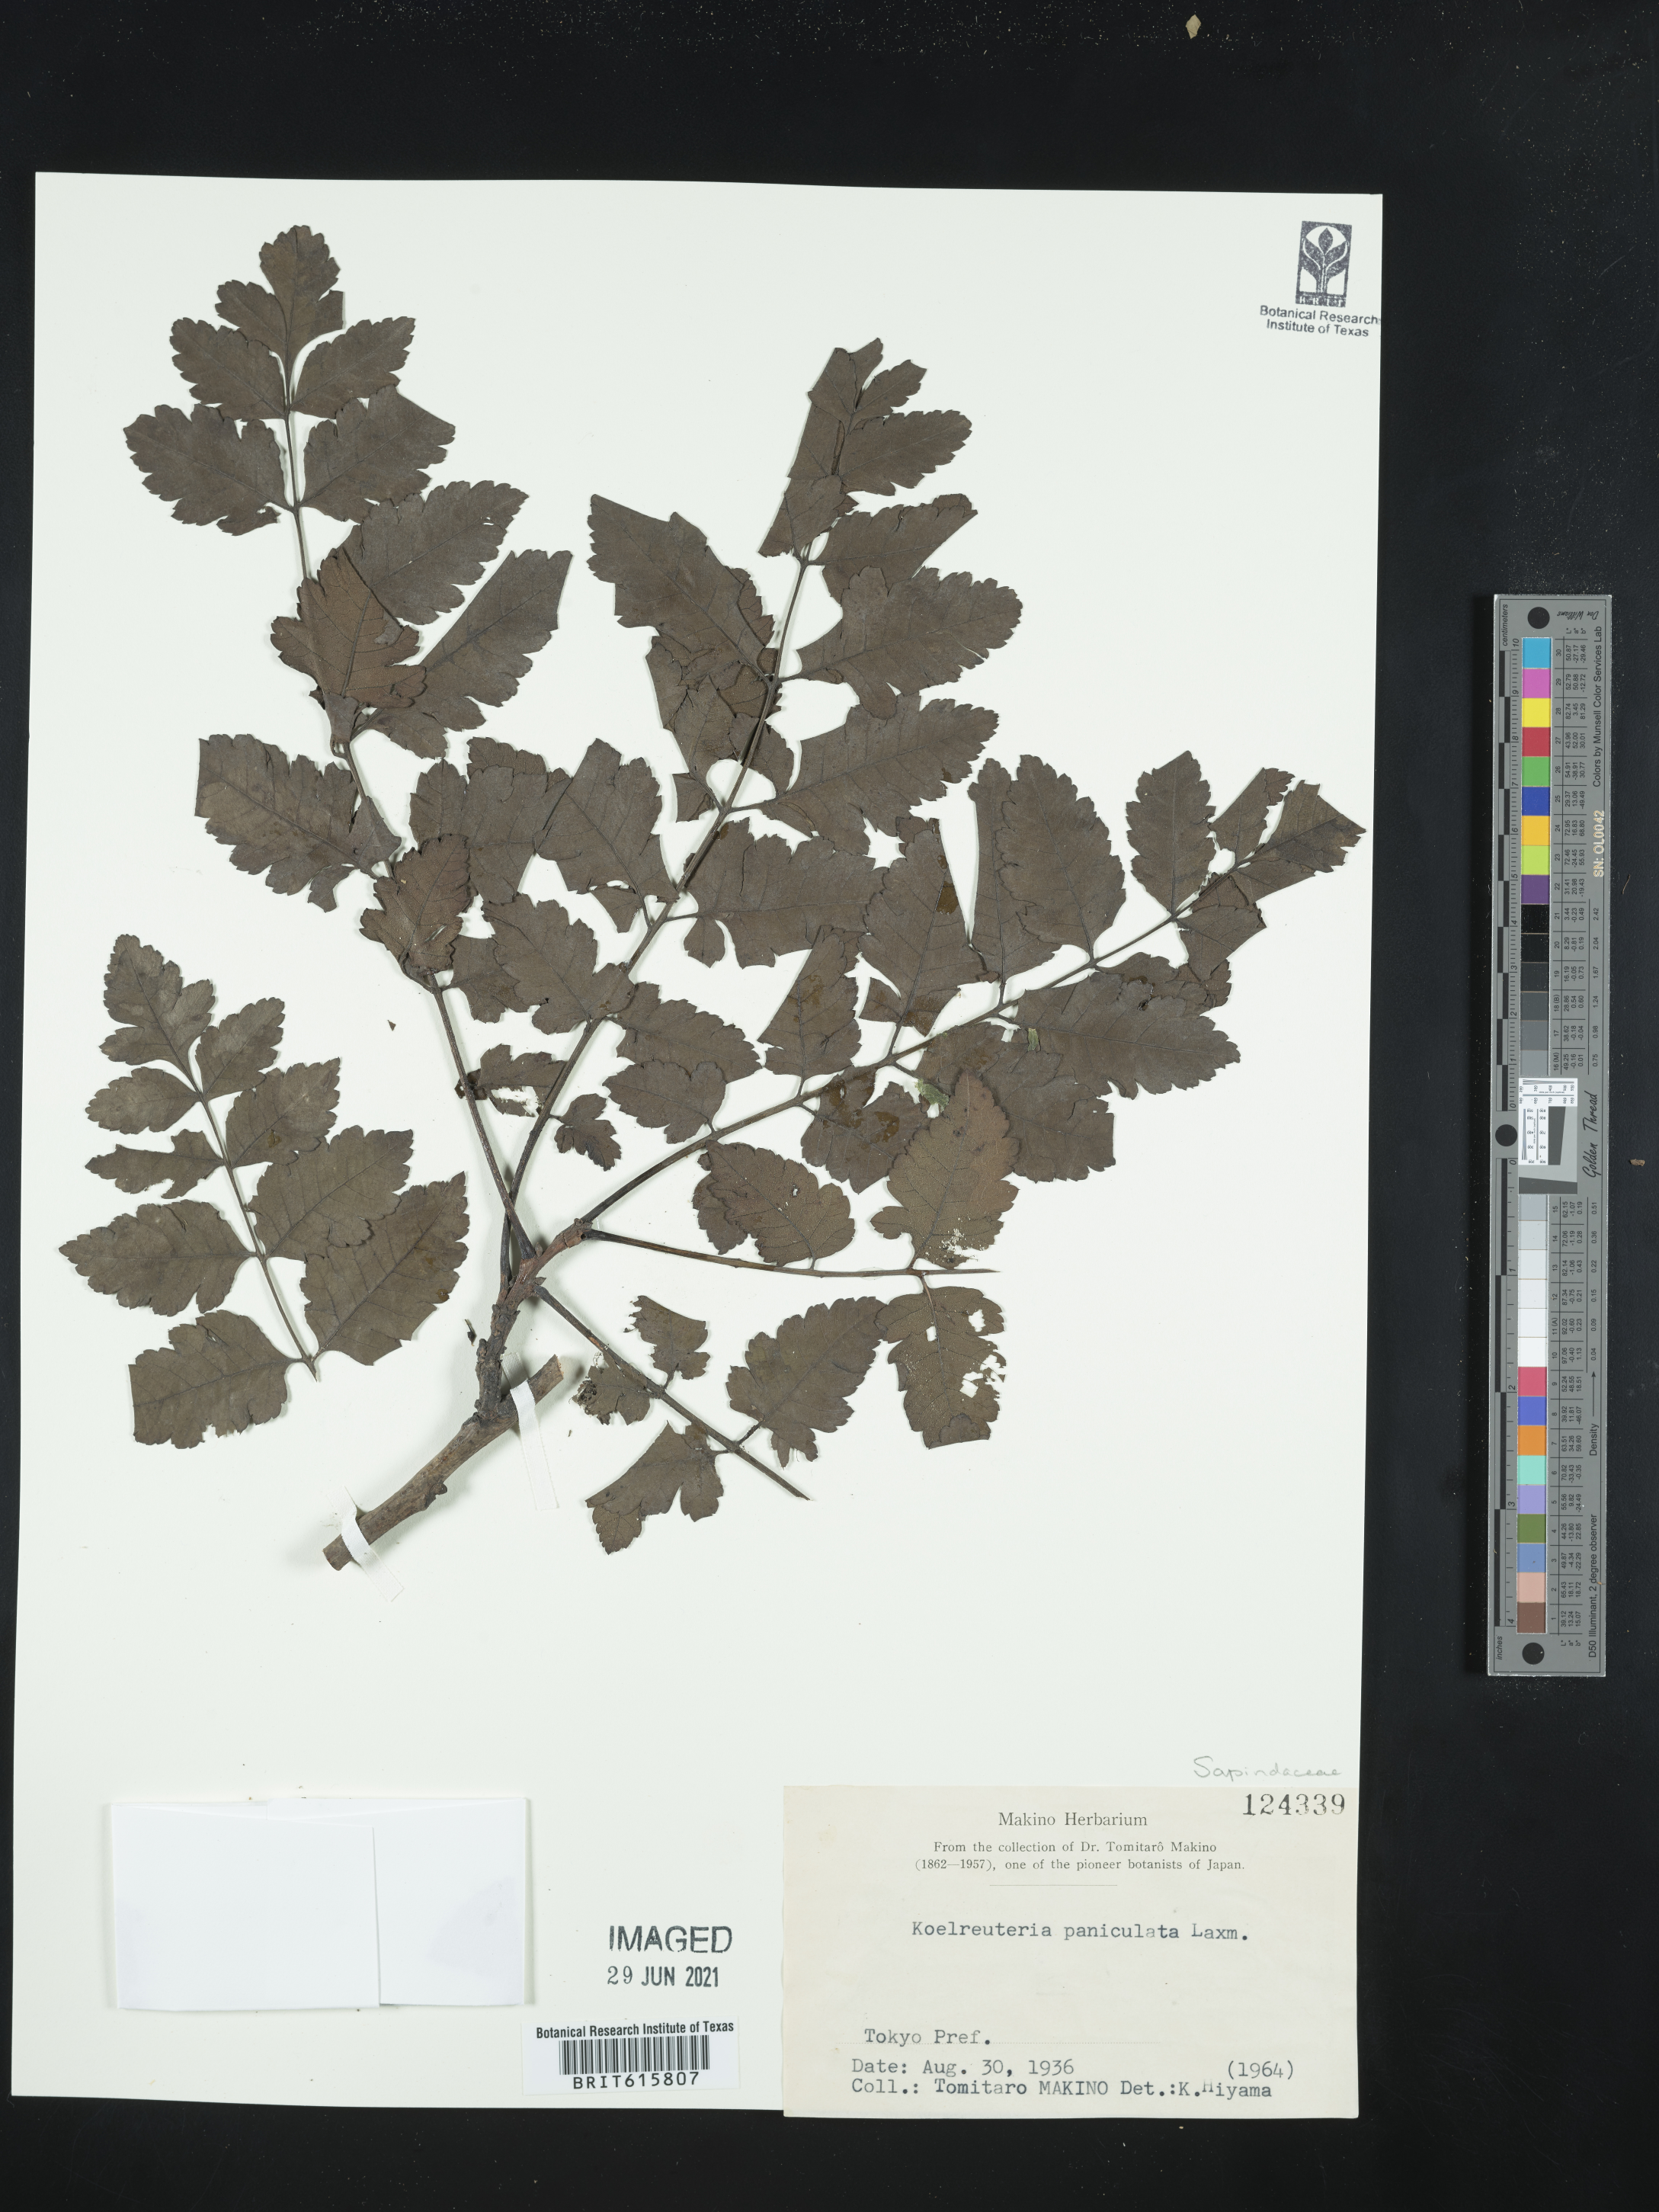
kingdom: Plantae
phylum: Tracheophyta
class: Magnoliopsida
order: Sapindales
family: Sapindaceae
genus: Koelreuteria
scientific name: Koelreuteria paniculata
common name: Pride-of-india
